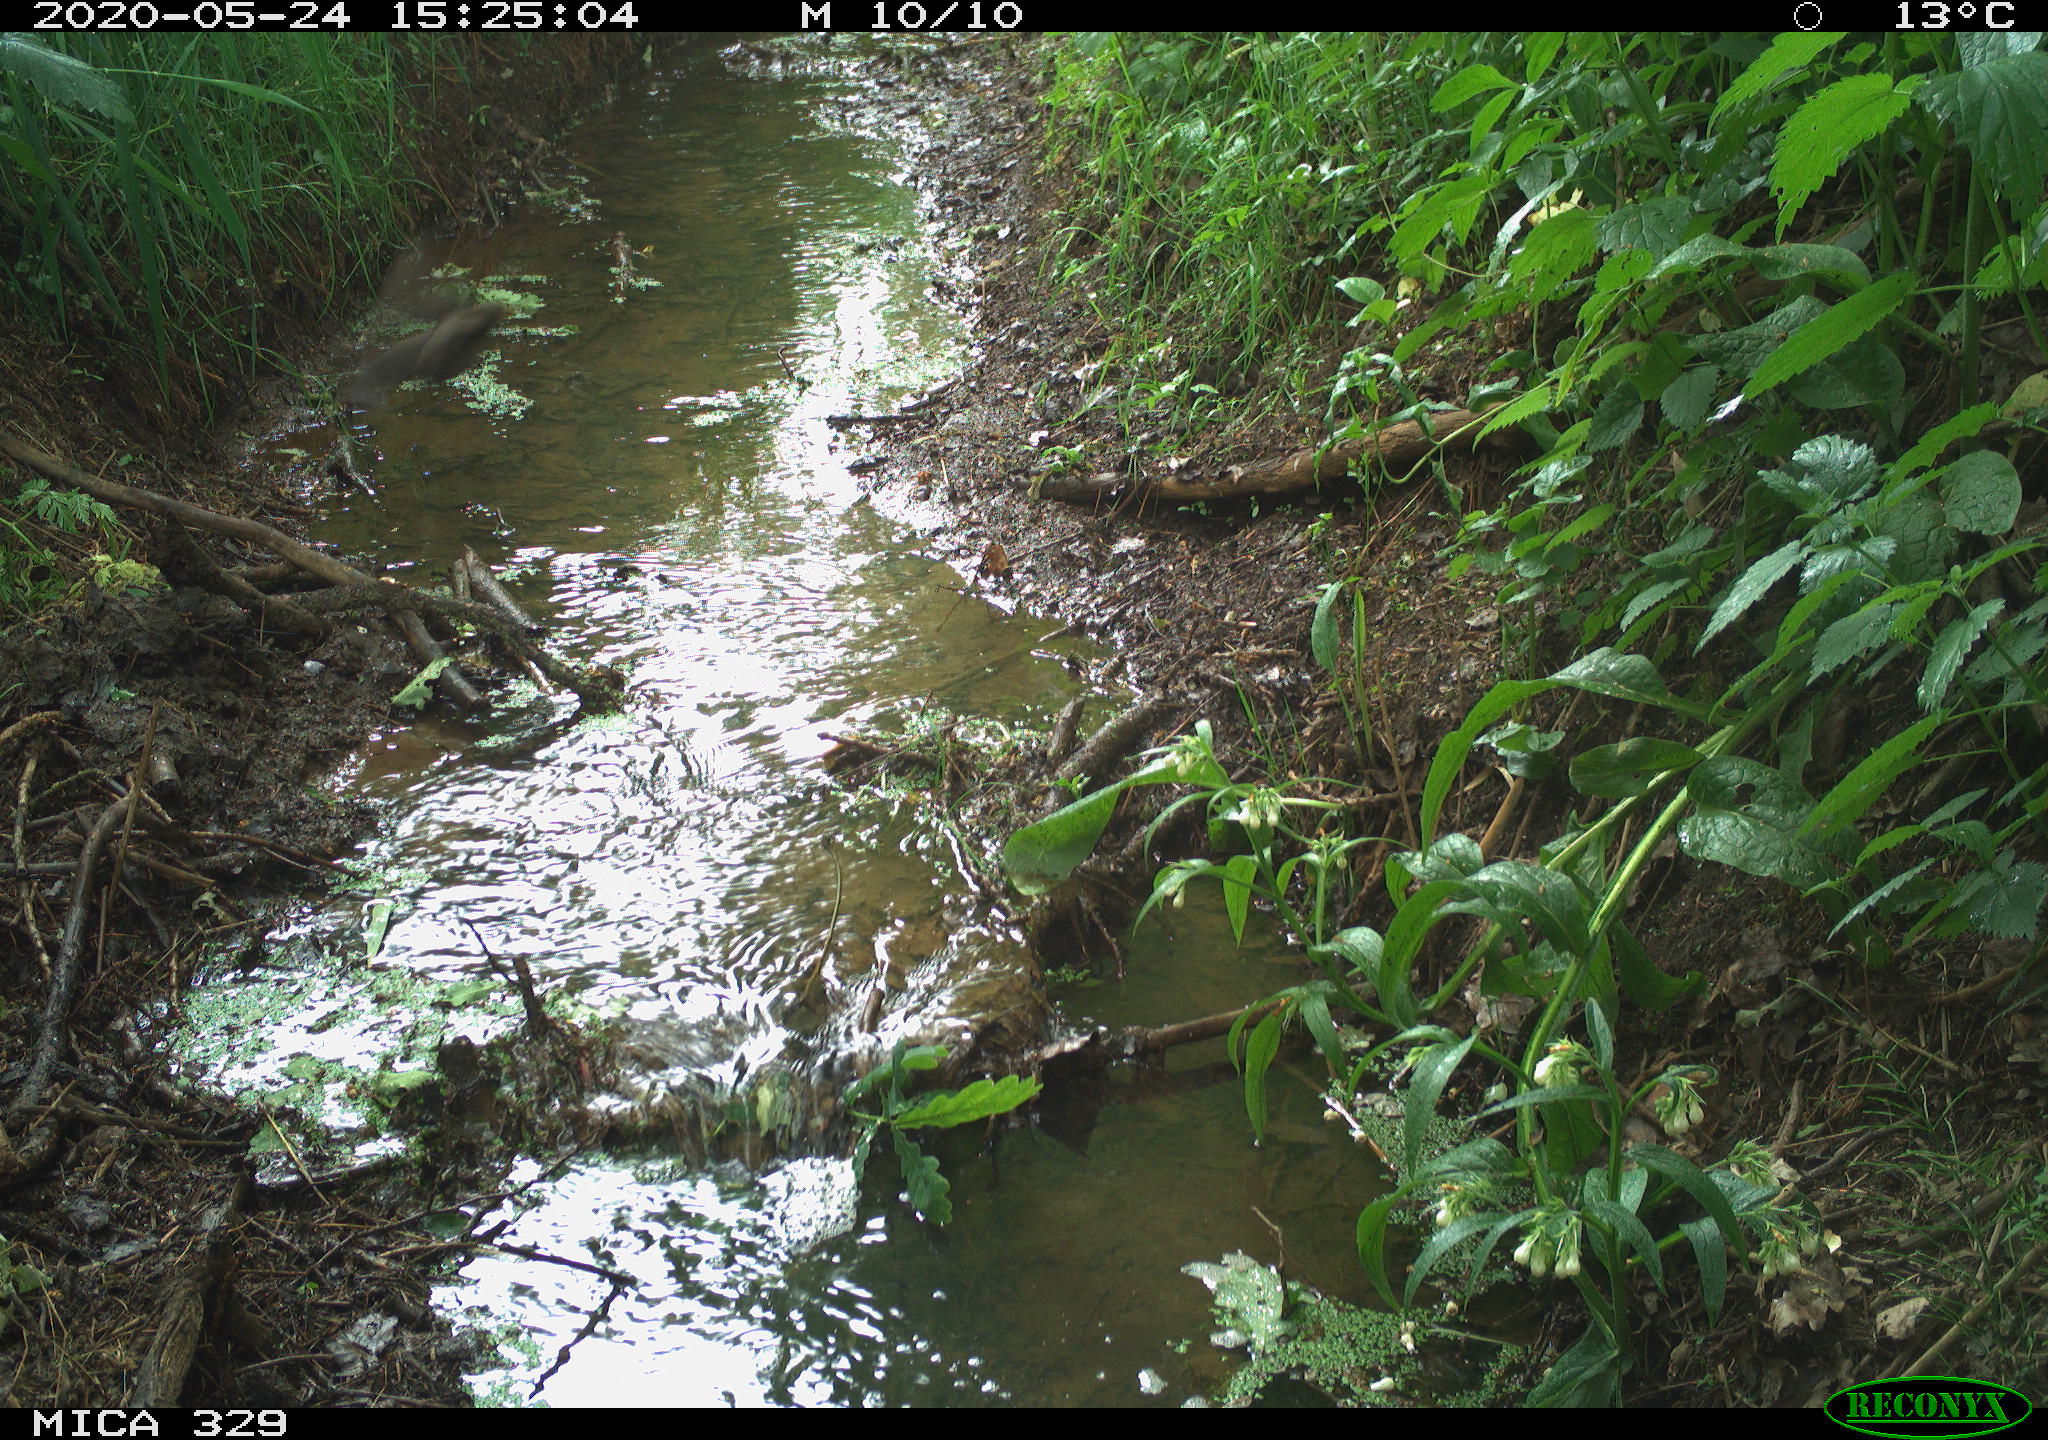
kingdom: Animalia
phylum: Chordata
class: Aves
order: Passeriformes
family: Turdidae
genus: Turdus
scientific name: Turdus merula
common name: Common blackbird
